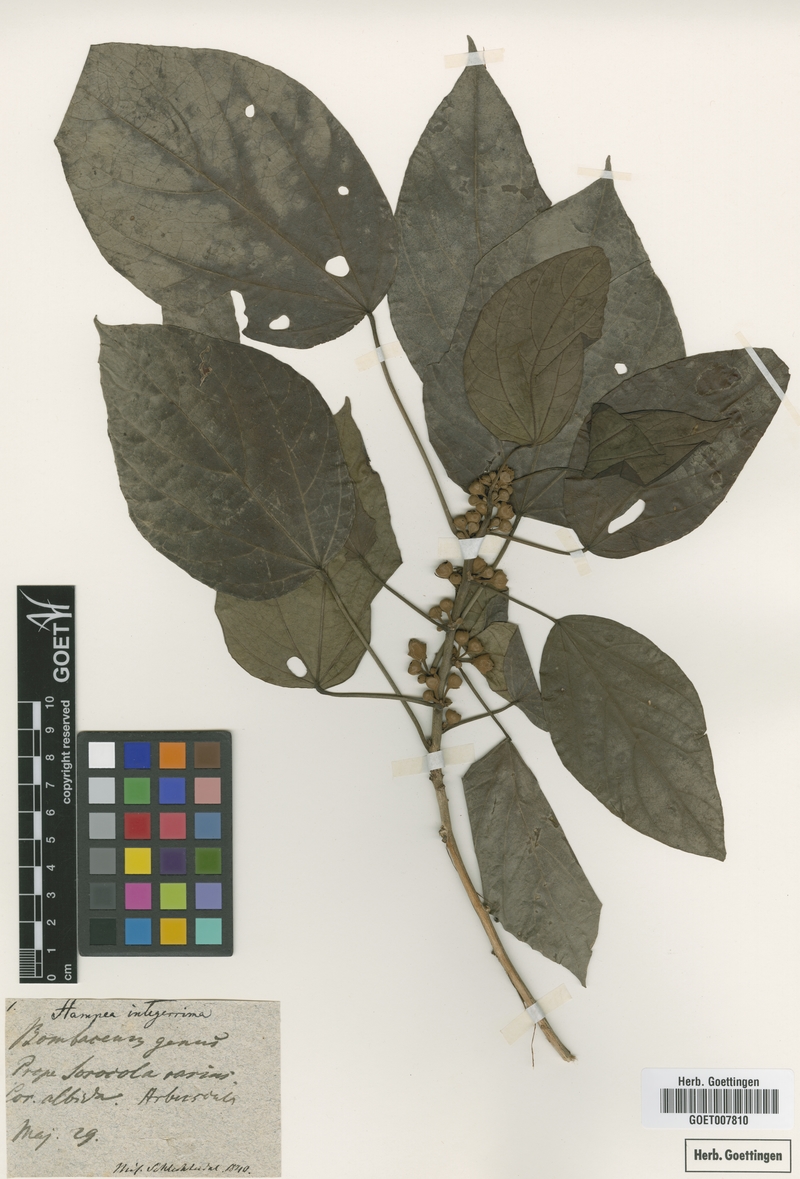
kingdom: Plantae
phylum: Tracheophyta
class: Magnoliopsida
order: Malvales
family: Malvaceae
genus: Hampea
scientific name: Hampea integerrima
